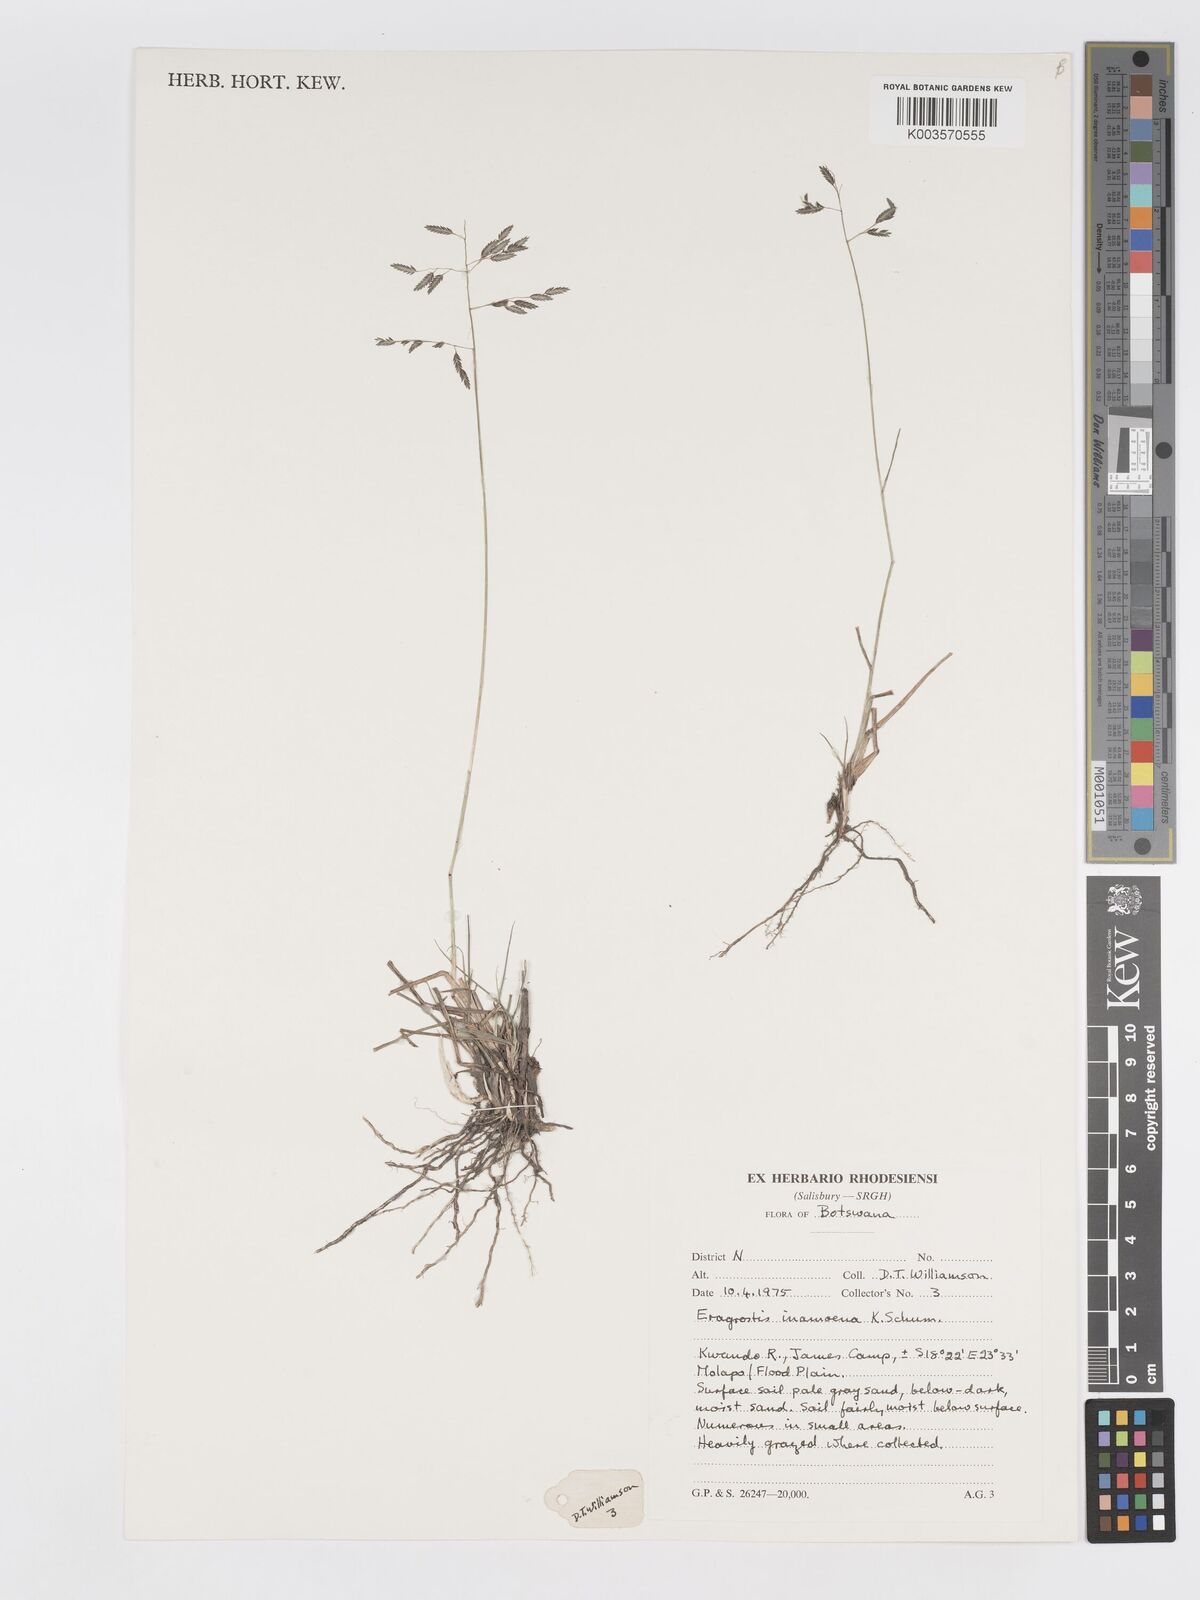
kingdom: Plantae
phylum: Tracheophyta
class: Liliopsida
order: Poales
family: Poaceae
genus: Eragrostis
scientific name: Eragrostis inamoena
